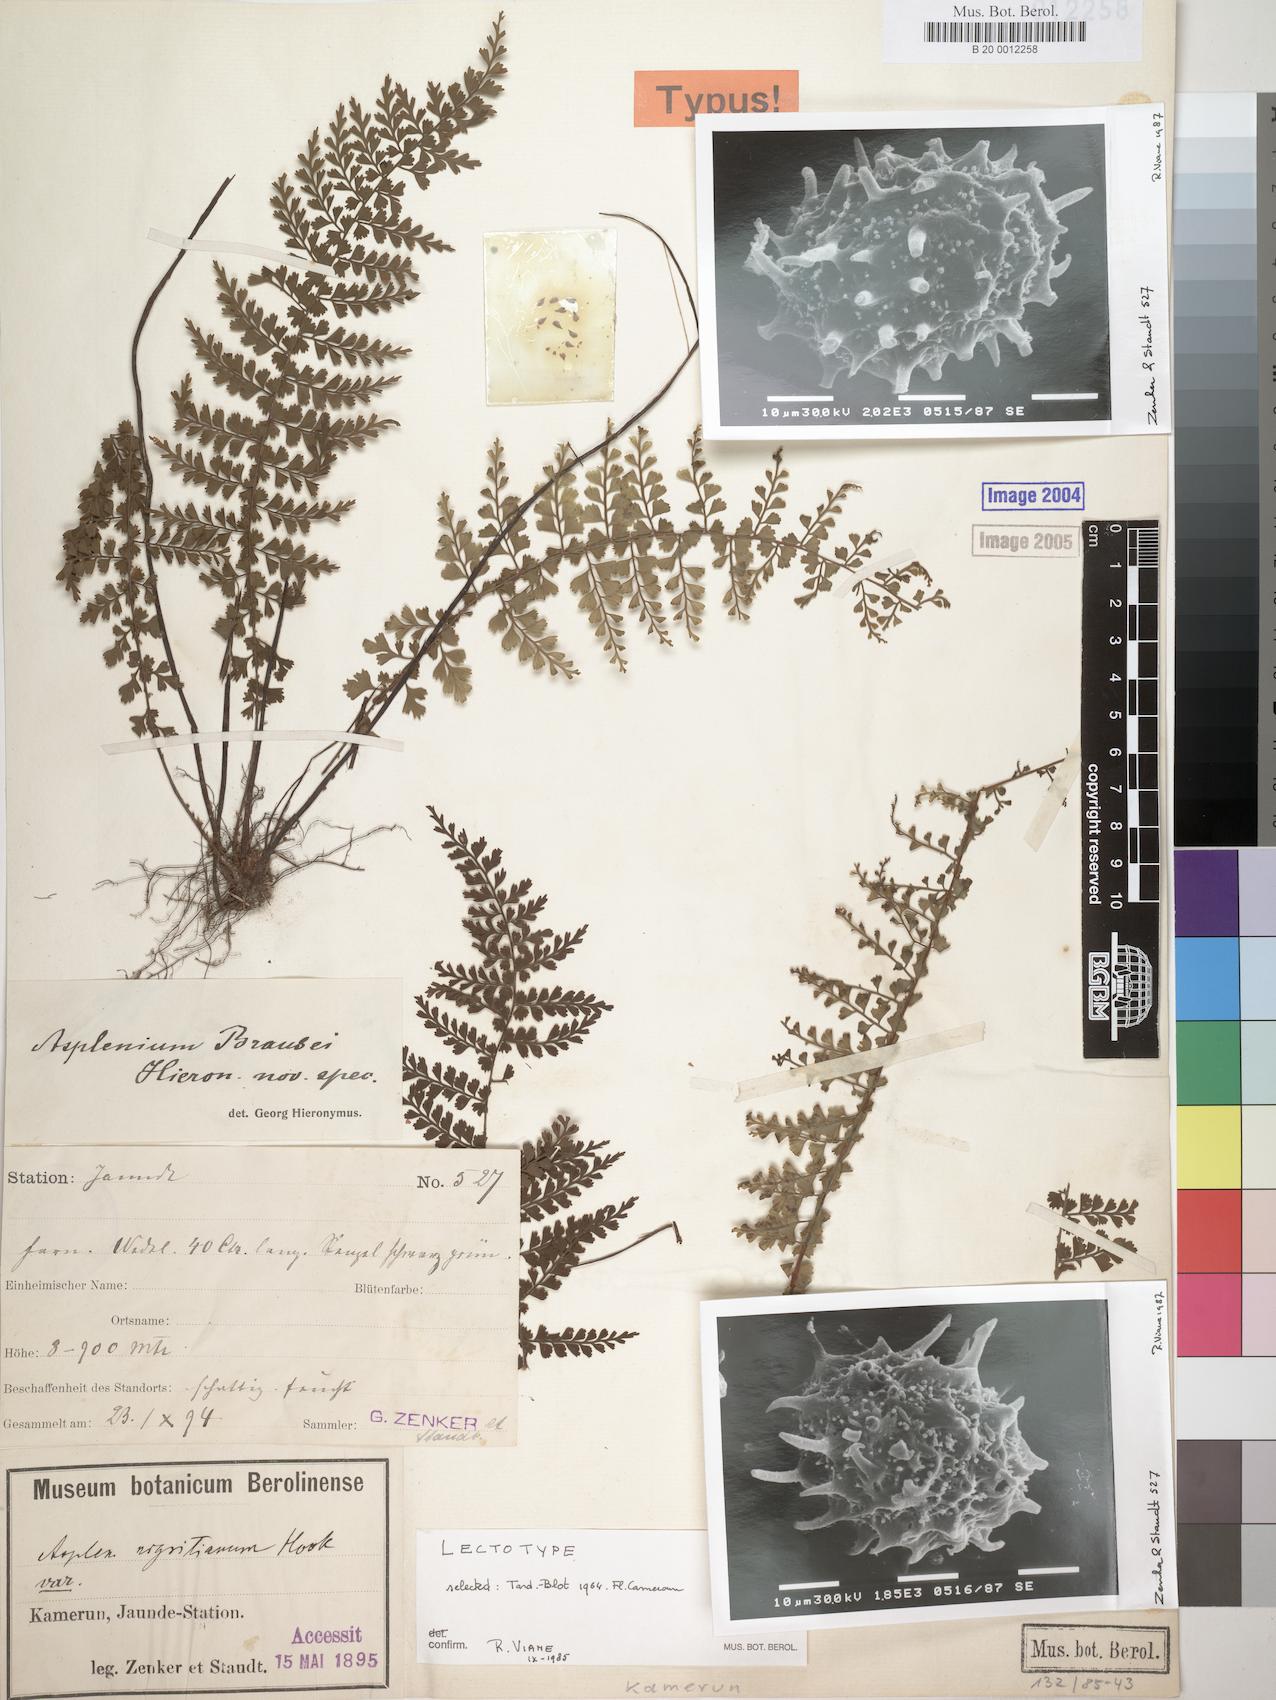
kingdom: Plantae
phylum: Tracheophyta
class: Polypodiopsida
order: Polypodiales
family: Aspleniaceae
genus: Asplenium
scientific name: Asplenium brausei
